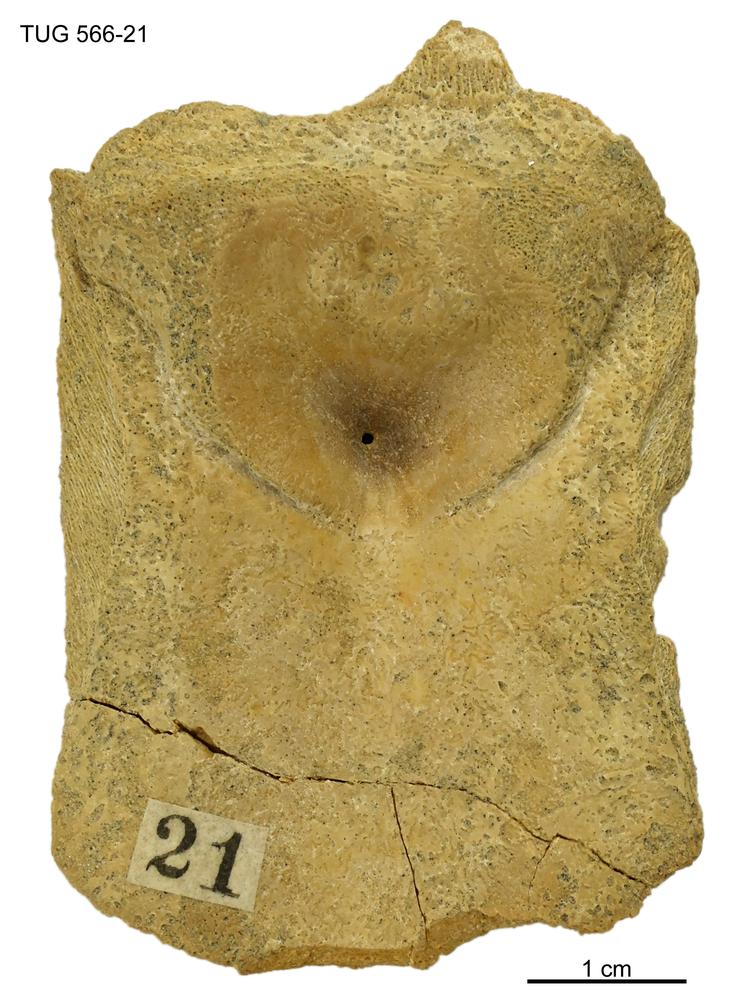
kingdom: Animalia
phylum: Chordata
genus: Homosteus
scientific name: Homosteus sulcatus
